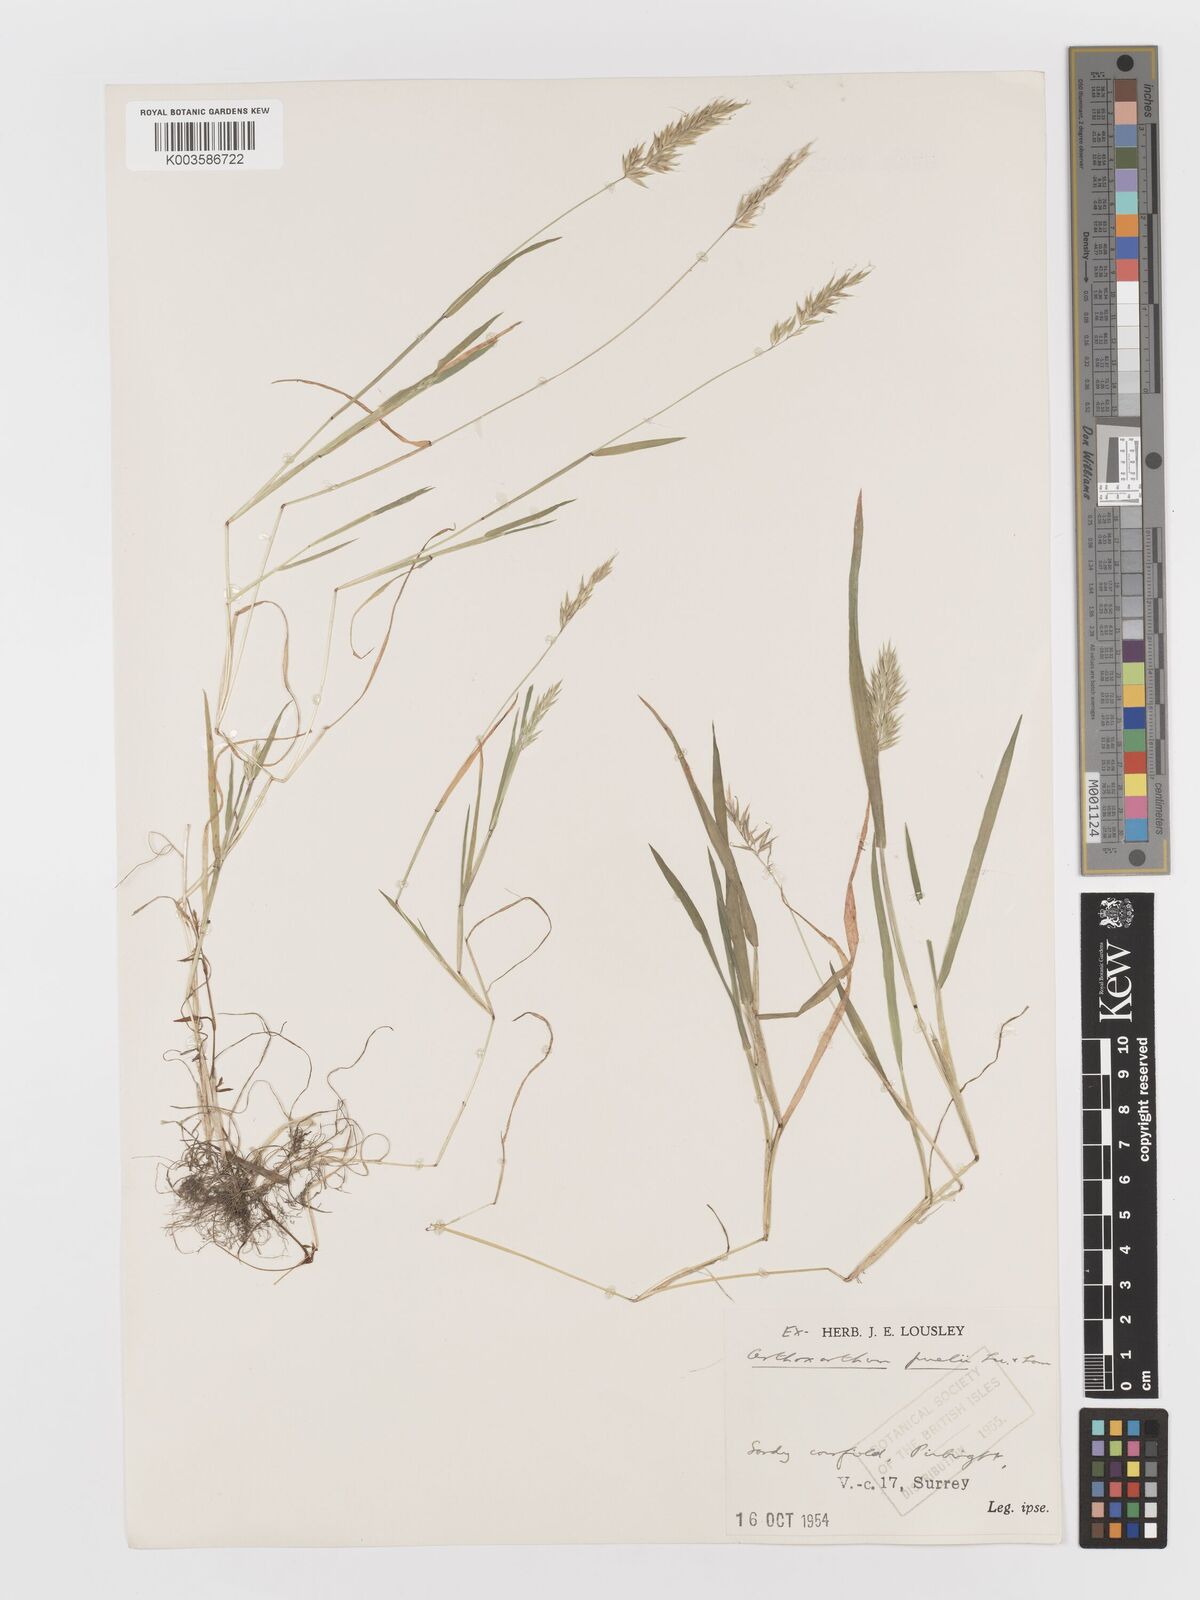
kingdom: Plantae
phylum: Tracheophyta
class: Liliopsida
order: Poales
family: Poaceae
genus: Anthoxanthum
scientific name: Anthoxanthum aristatum
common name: Annual vernal-grass
